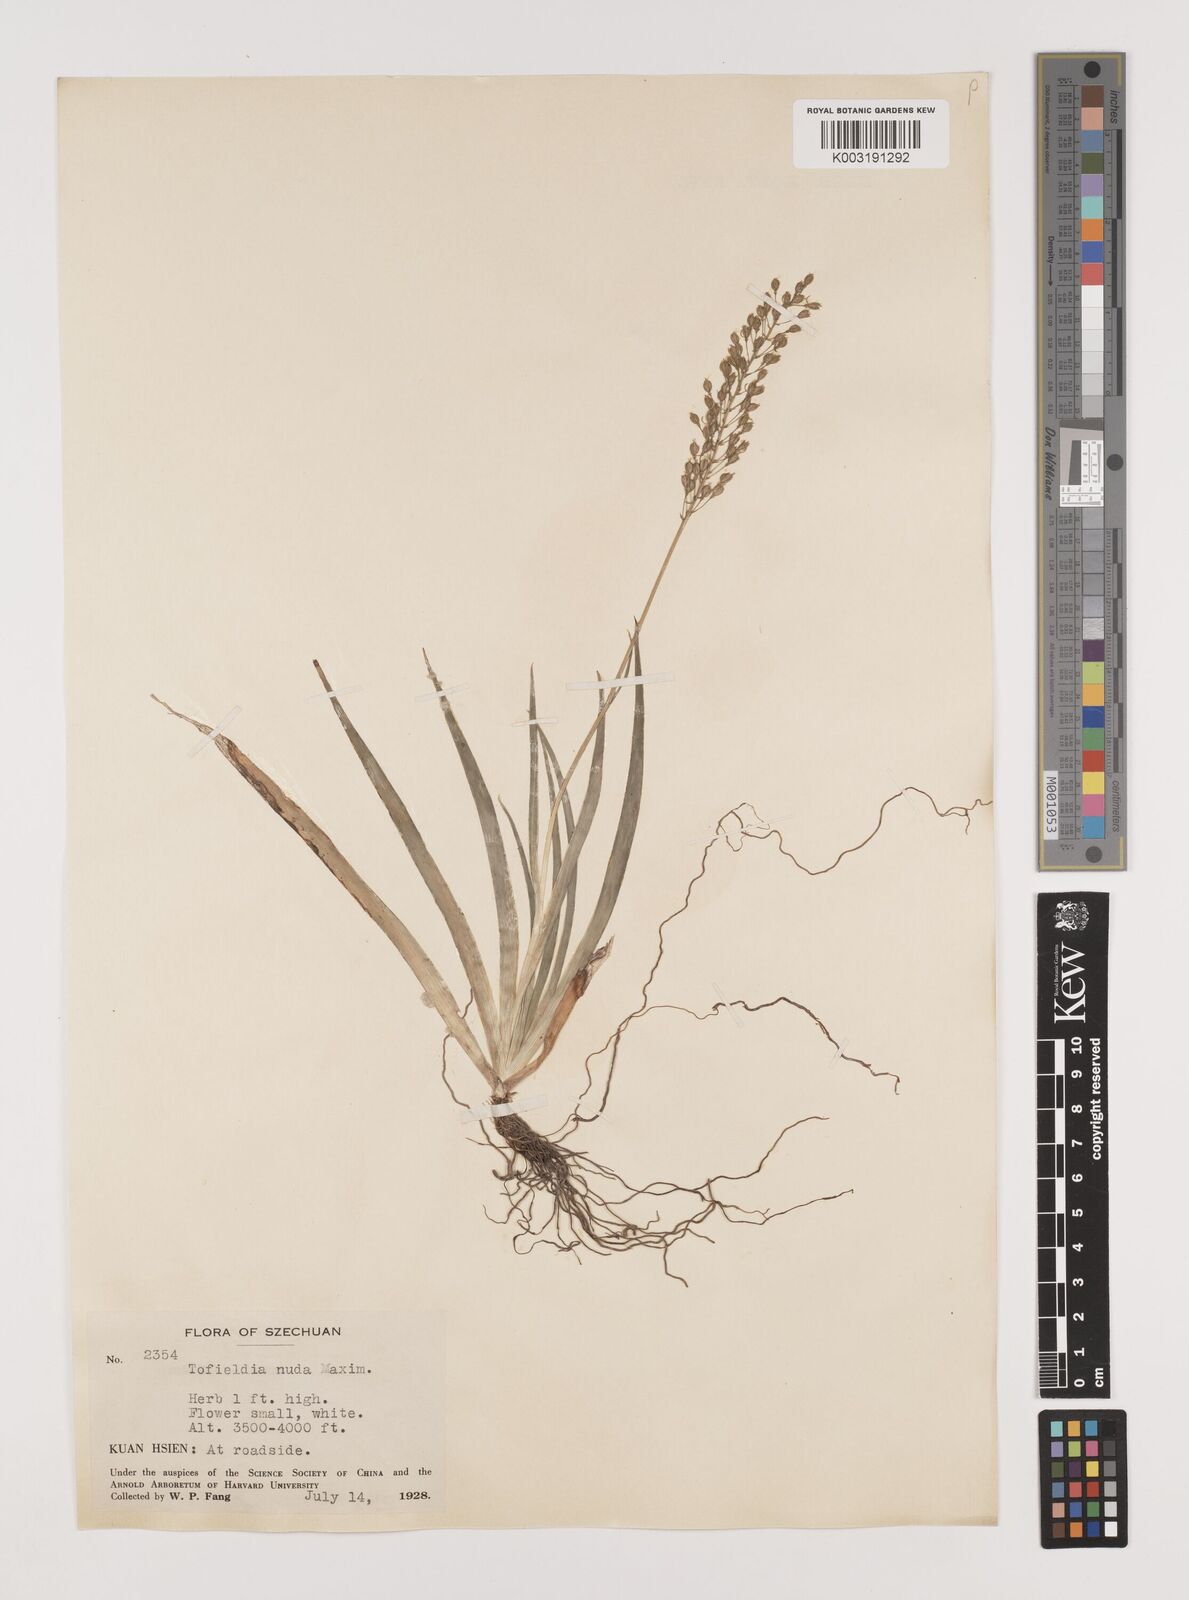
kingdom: Plantae
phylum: Tracheophyta
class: Liliopsida
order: Alismatales
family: Tofieldiaceae
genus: Tofieldia
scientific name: Tofieldia thibetica
